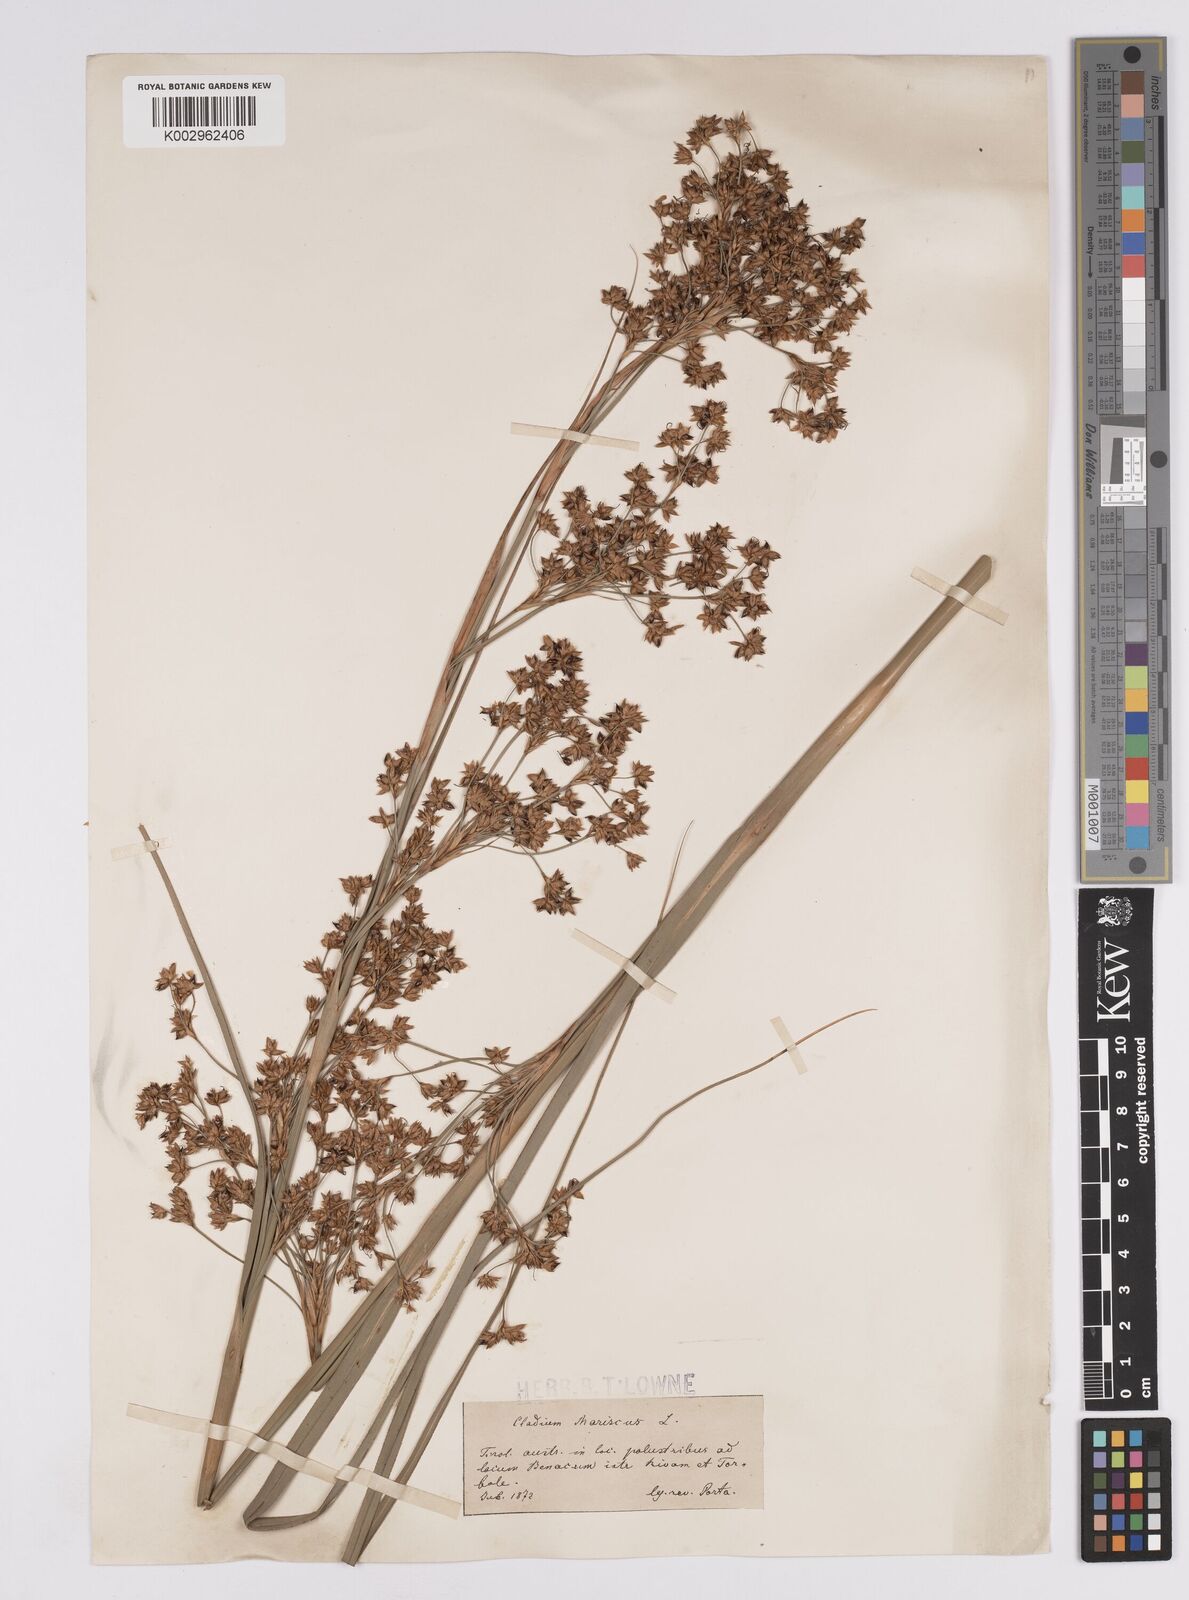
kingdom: Plantae
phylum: Tracheophyta
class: Liliopsida
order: Poales
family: Cyperaceae
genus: Cladium
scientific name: Cladium mariscus
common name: Great fen-sedge
